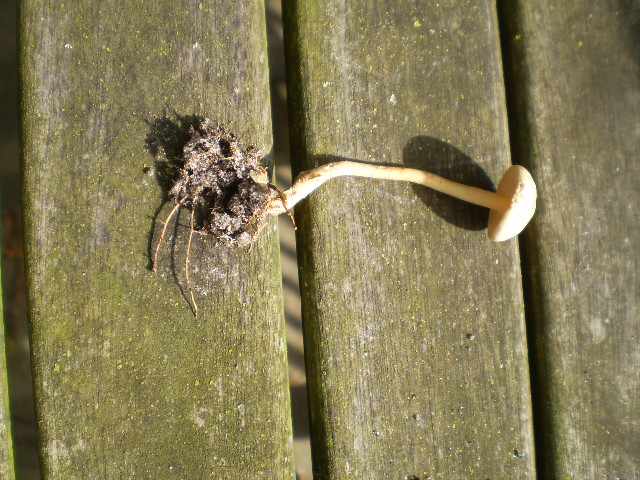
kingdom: Fungi
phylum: Basidiomycota
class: Agaricomycetes
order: Agaricales
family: Omphalotaceae
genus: Gymnopus
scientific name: Gymnopus dryophilus
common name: løv-fladhat
